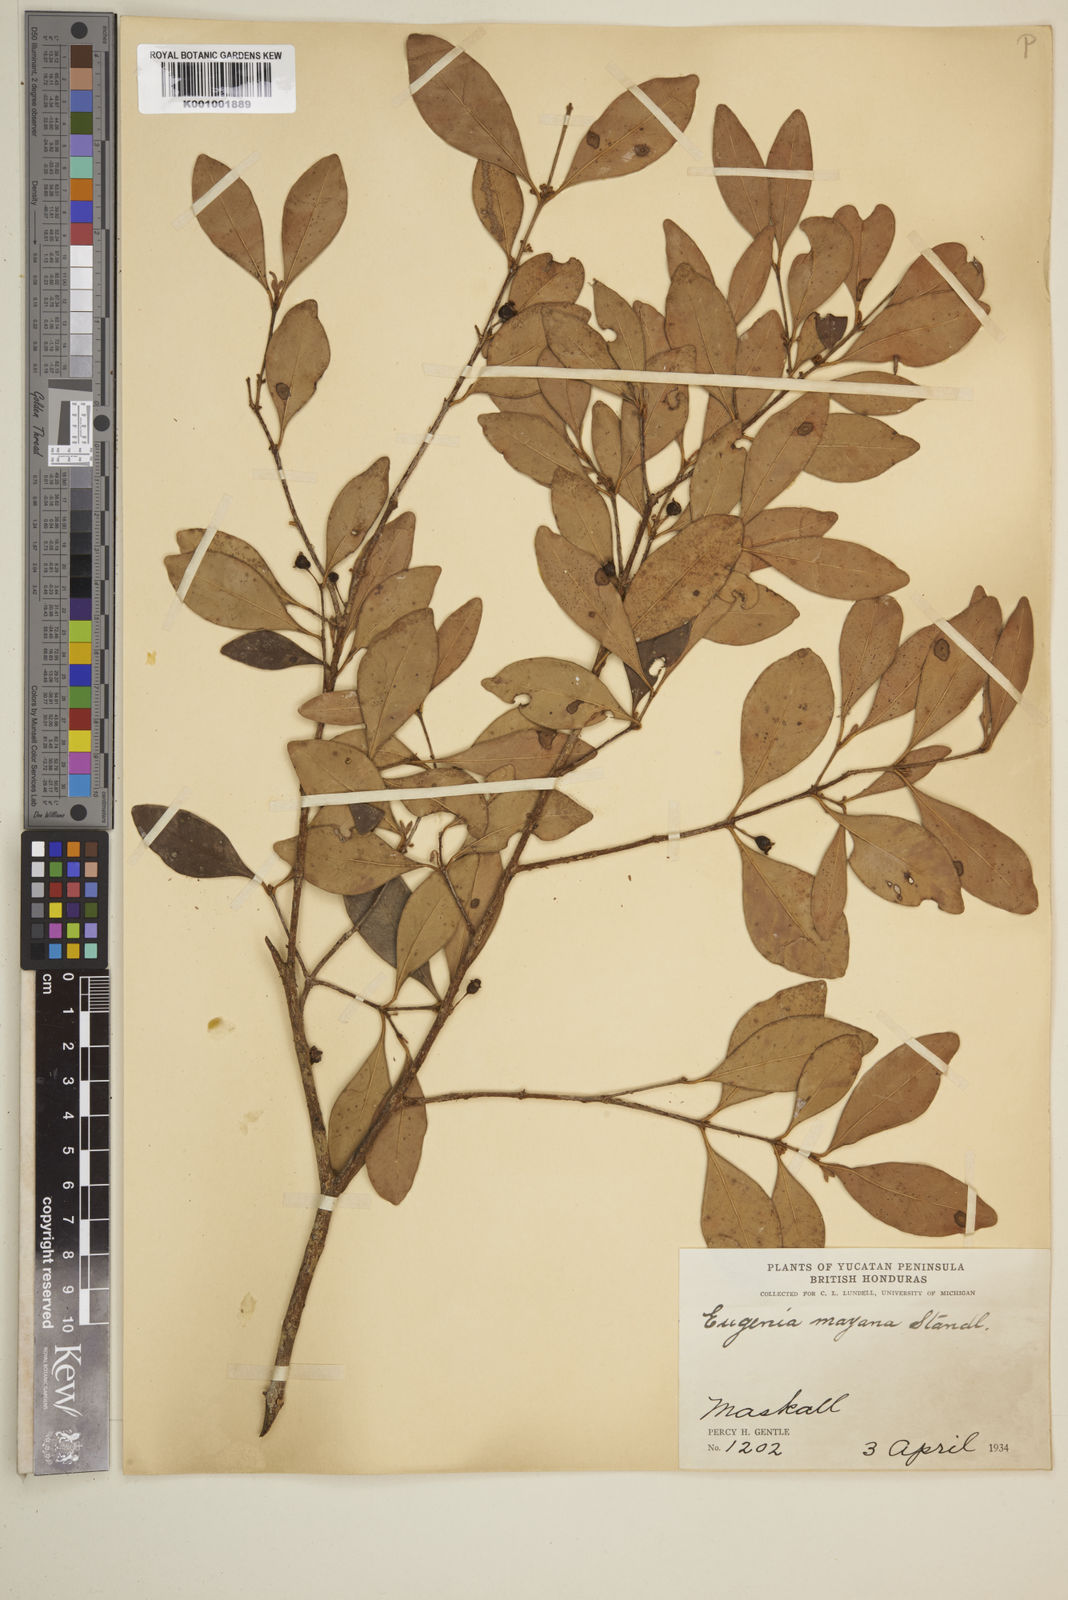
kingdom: Plantae
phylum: Tracheophyta
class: Magnoliopsida
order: Myrtales
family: Myrtaceae
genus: Eugenia
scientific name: Eugenia foetida
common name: White wattling
